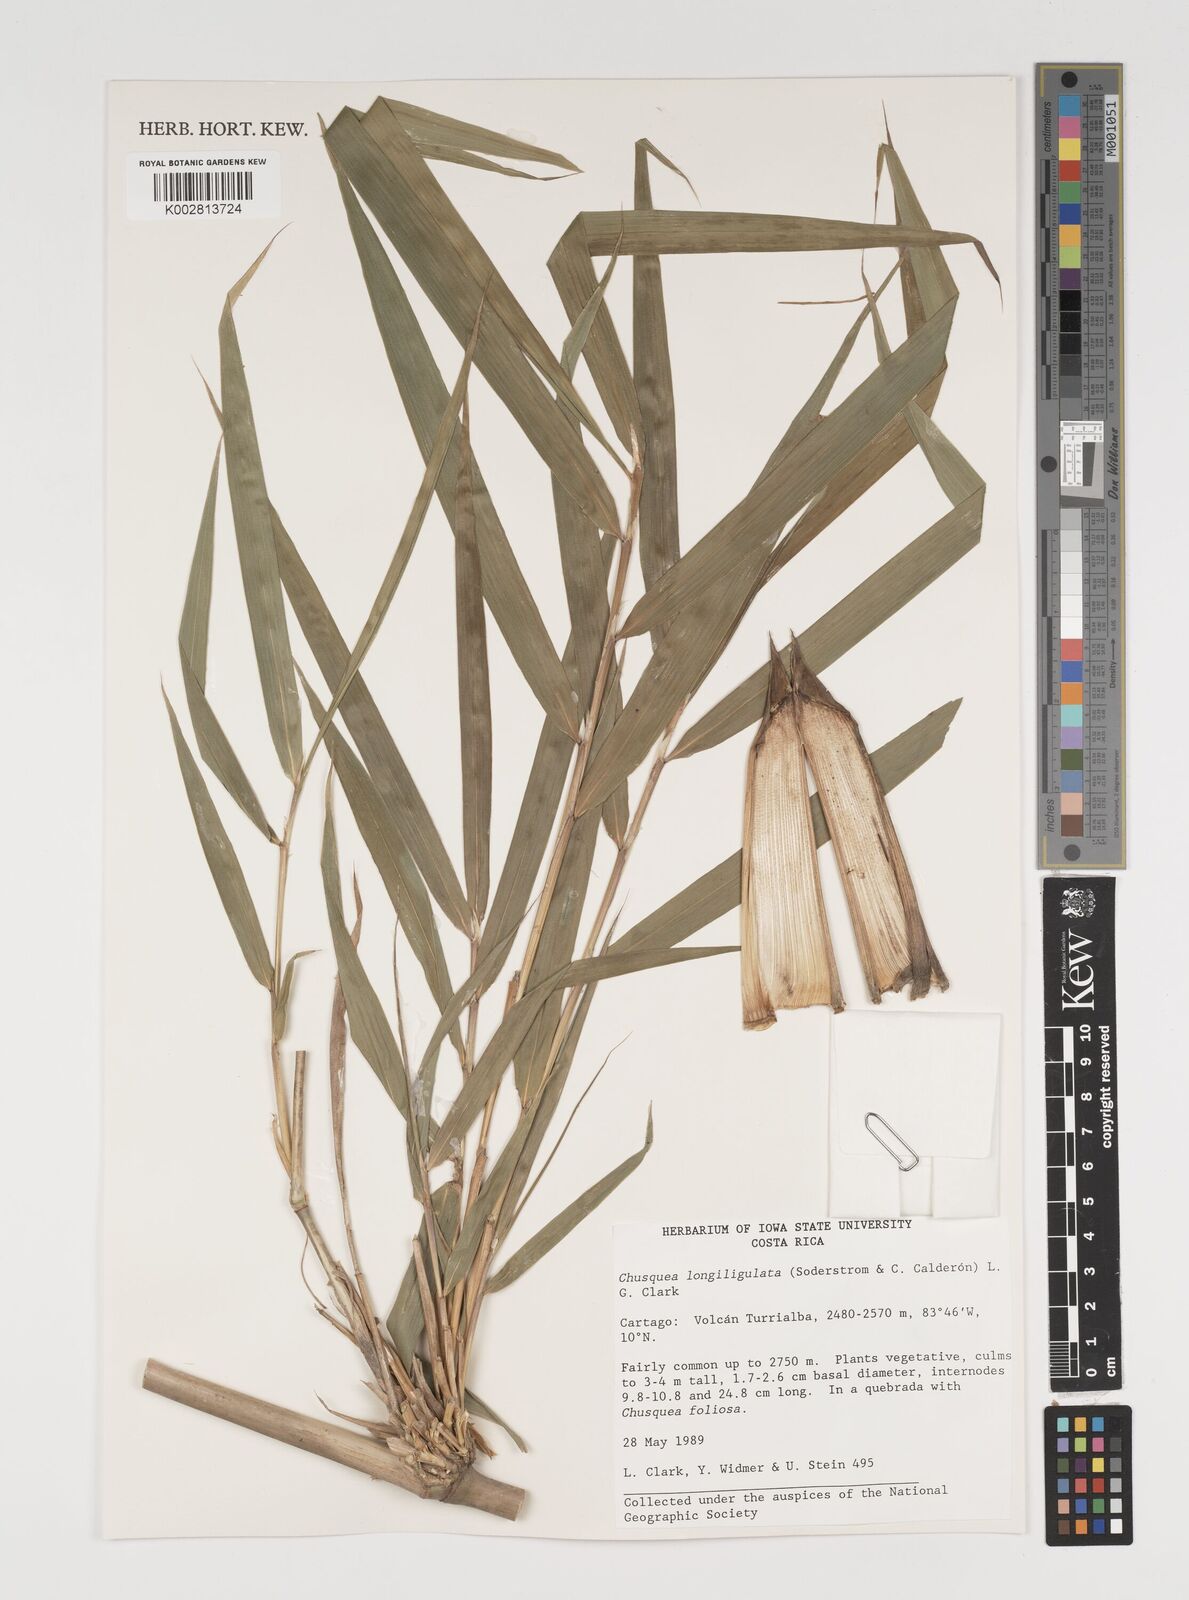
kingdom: Plantae
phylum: Tracheophyta
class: Liliopsida
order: Poales
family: Poaceae
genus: Chusquea
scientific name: Chusquea longiligulata
